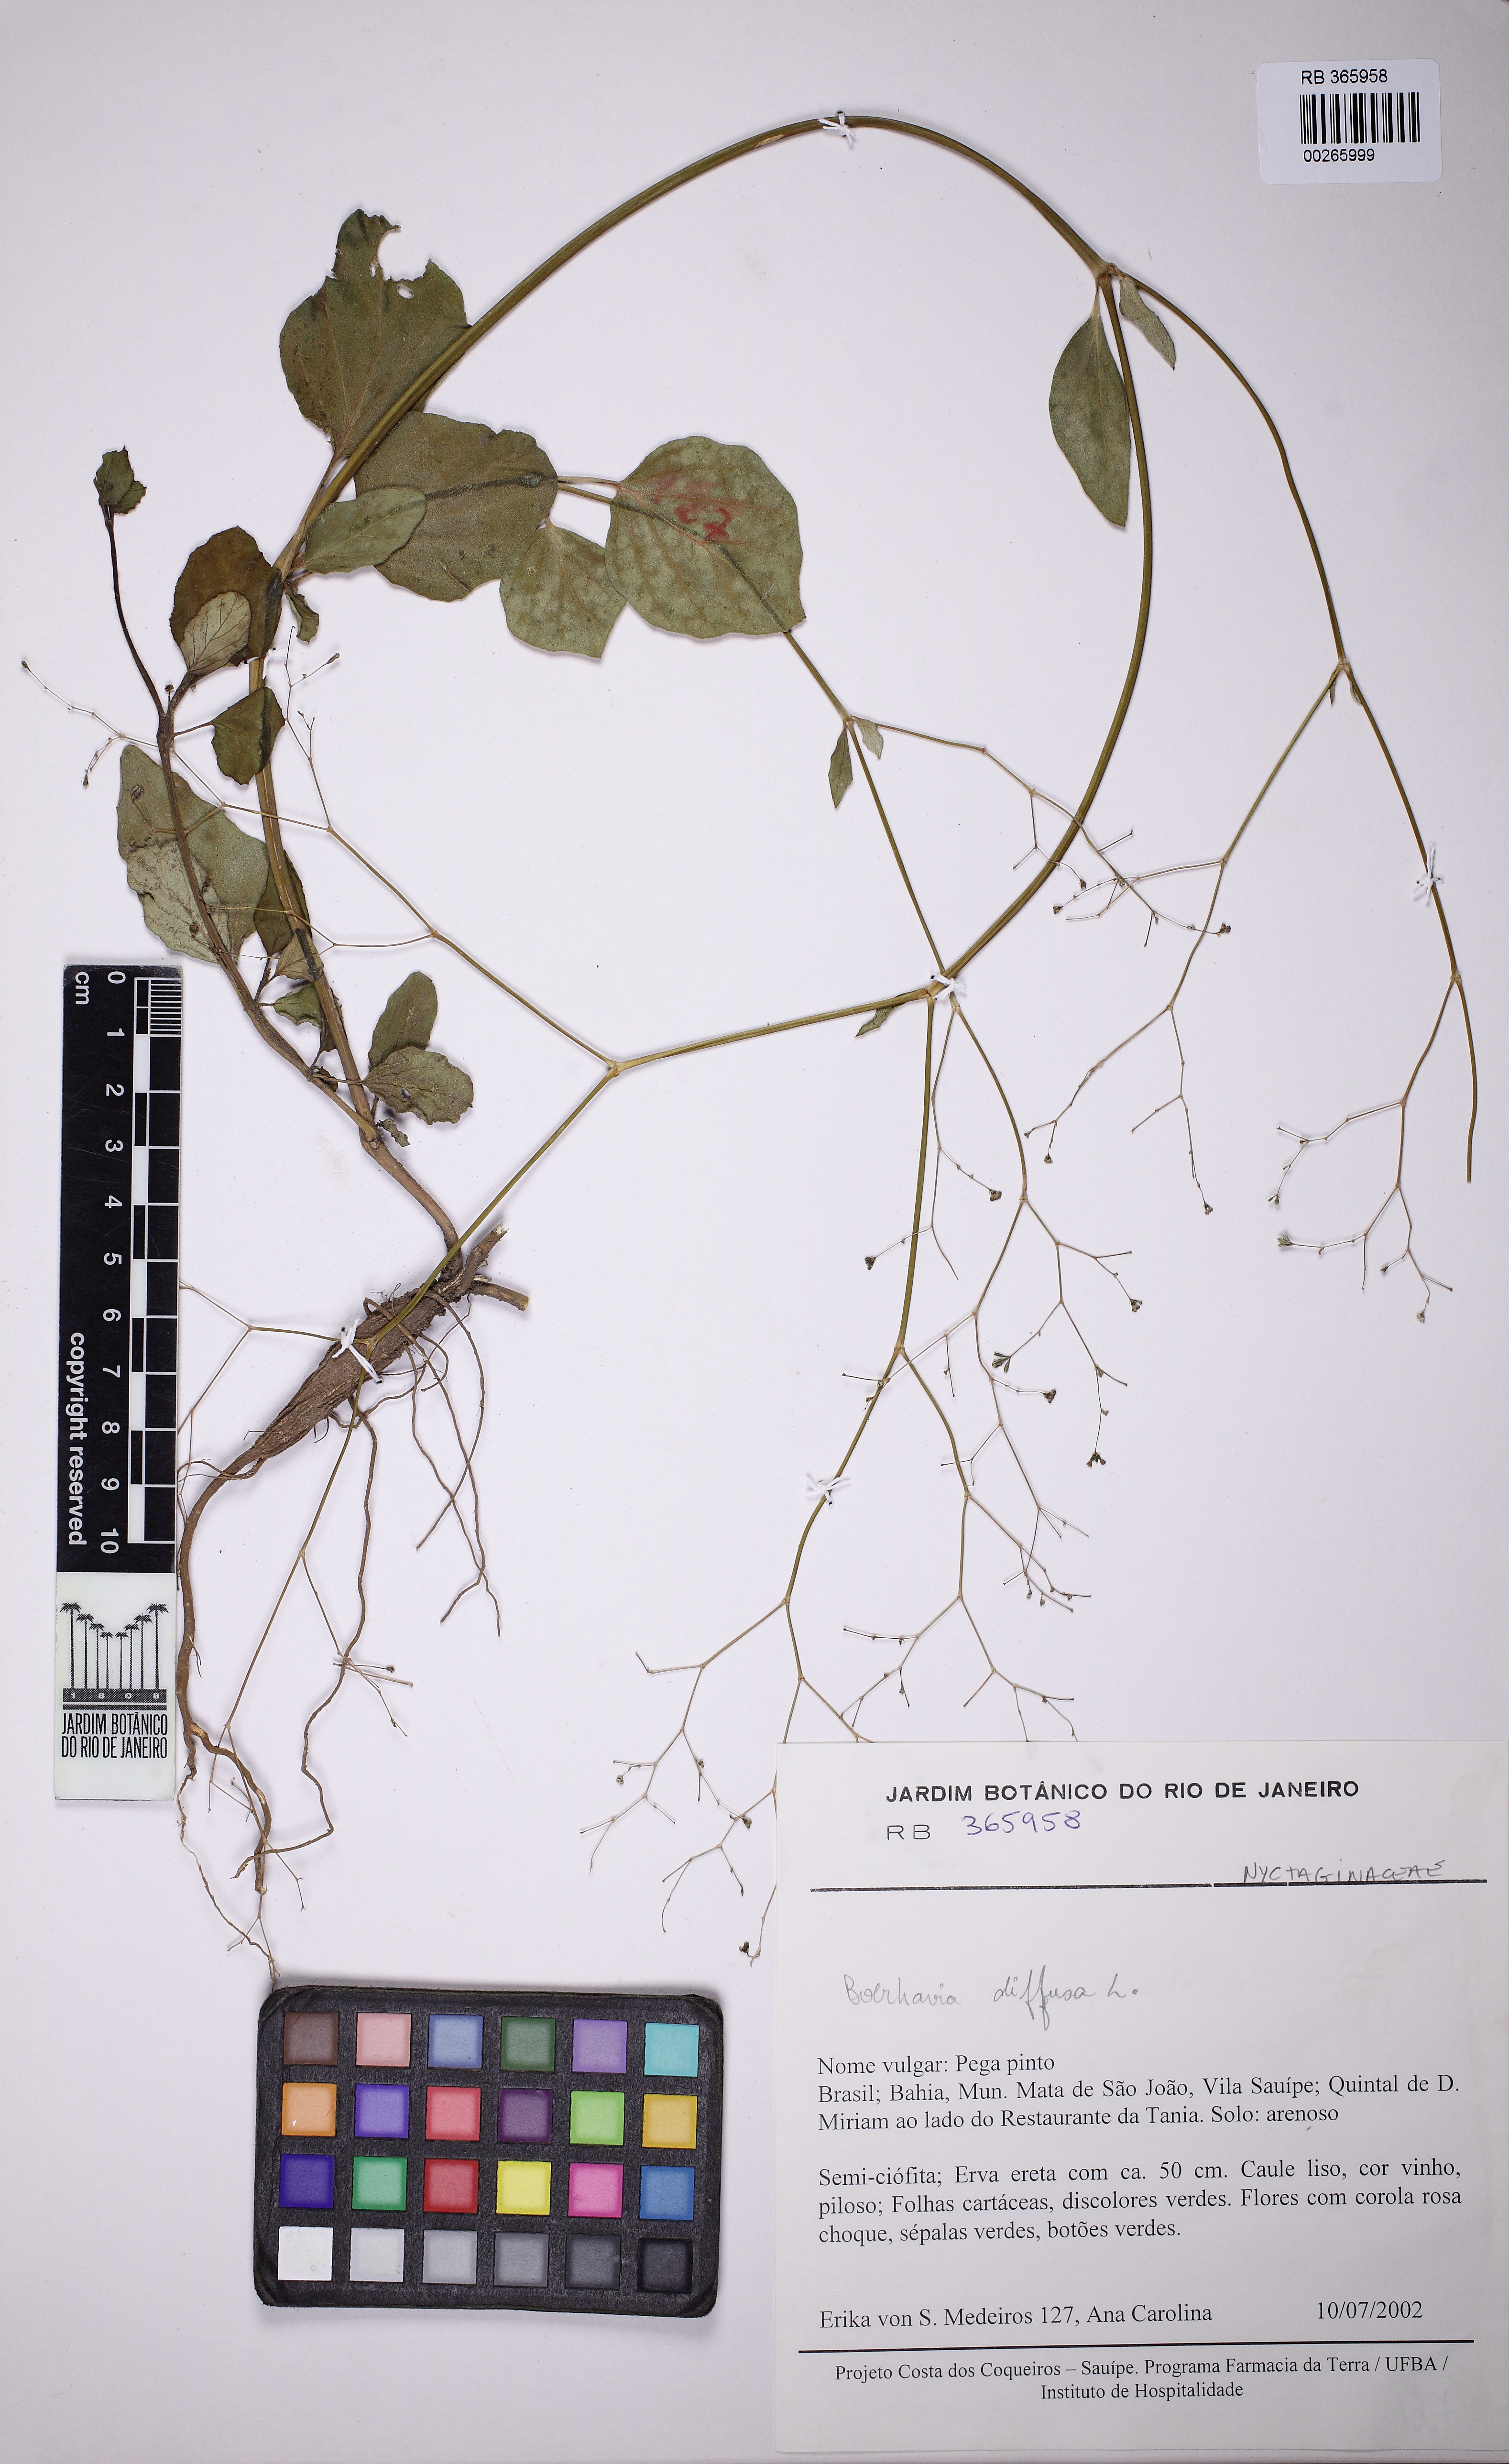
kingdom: Plantae
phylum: Tracheophyta
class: Magnoliopsida
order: Caryophyllales
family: Nyctaginaceae
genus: Boerhavia
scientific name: Boerhavia diffusa
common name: Red spiderling
